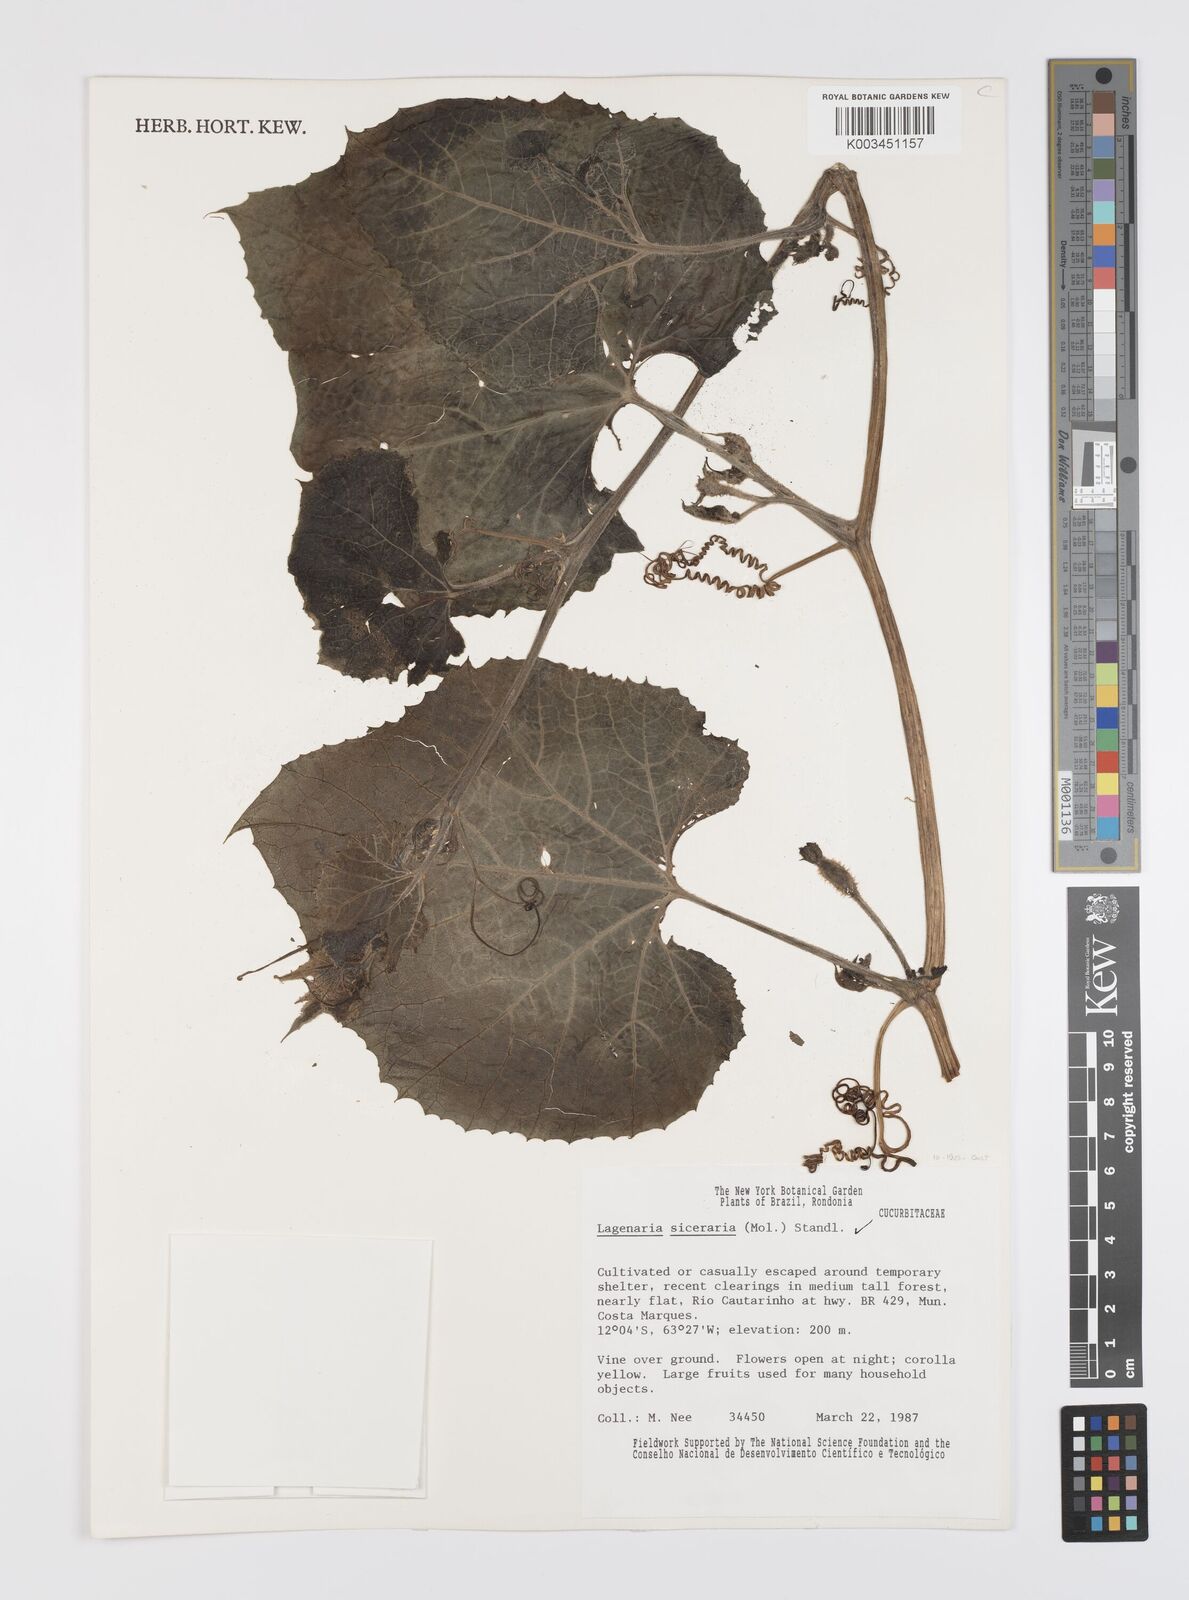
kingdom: Plantae
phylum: Tracheophyta
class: Magnoliopsida
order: Cucurbitales
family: Cucurbitaceae
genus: Lagenaria
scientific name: Lagenaria siceraria
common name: Bottle gourd
